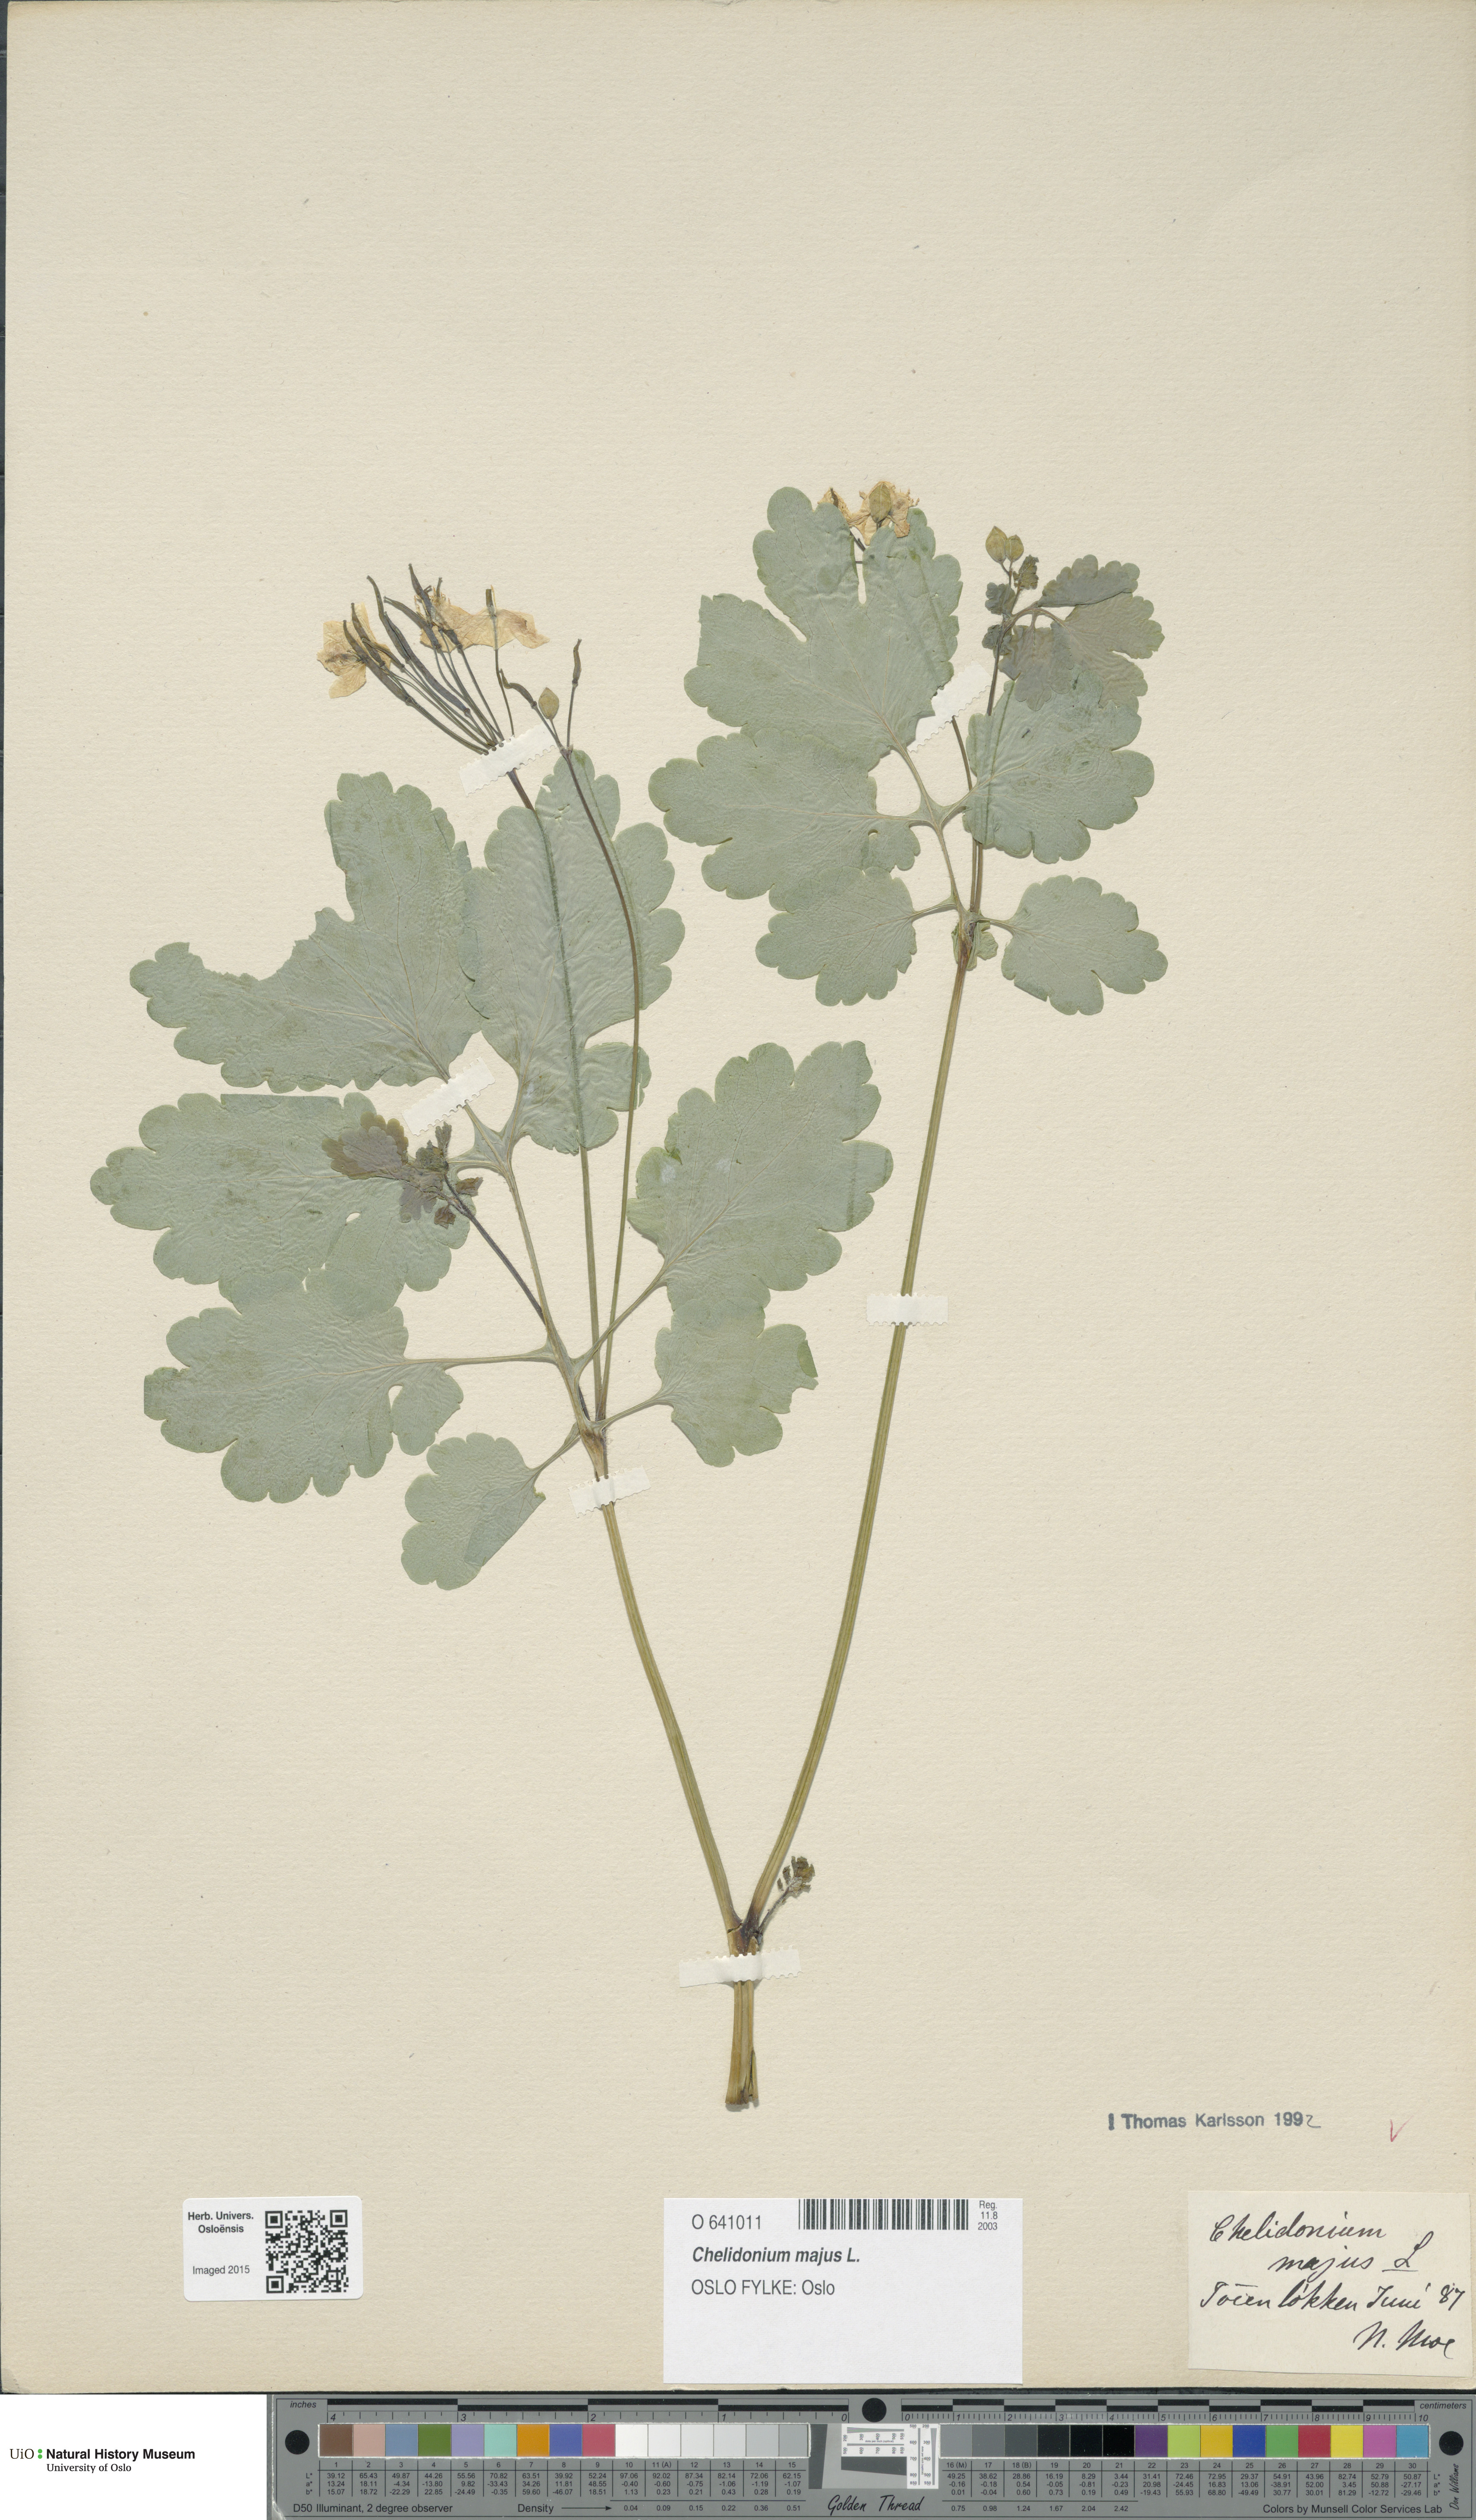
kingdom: Plantae
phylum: Tracheophyta
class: Magnoliopsida
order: Ranunculales
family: Papaveraceae
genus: Chelidonium
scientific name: Chelidonium majus
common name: Greater celandine
